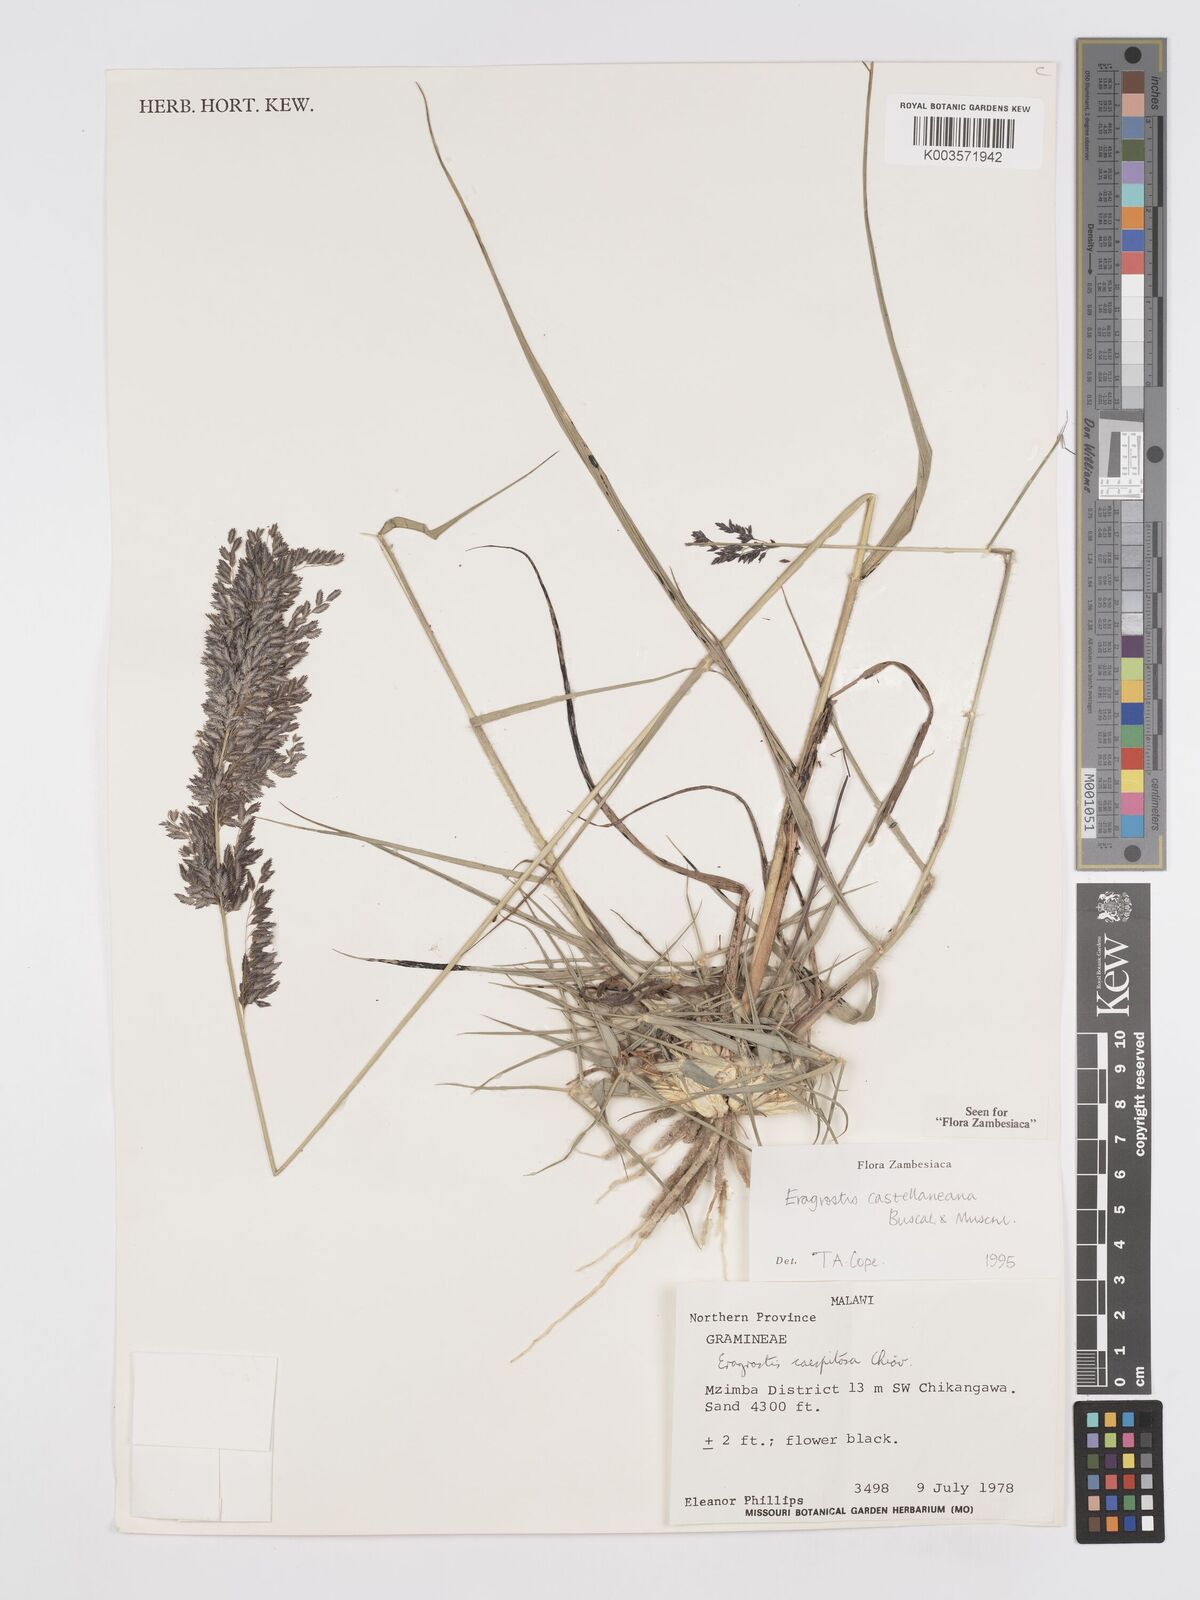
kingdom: Plantae
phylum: Tracheophyta
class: Liliopsida
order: Poales
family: Poaceae
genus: Eragrostis
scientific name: Eragrostis castellaneana
